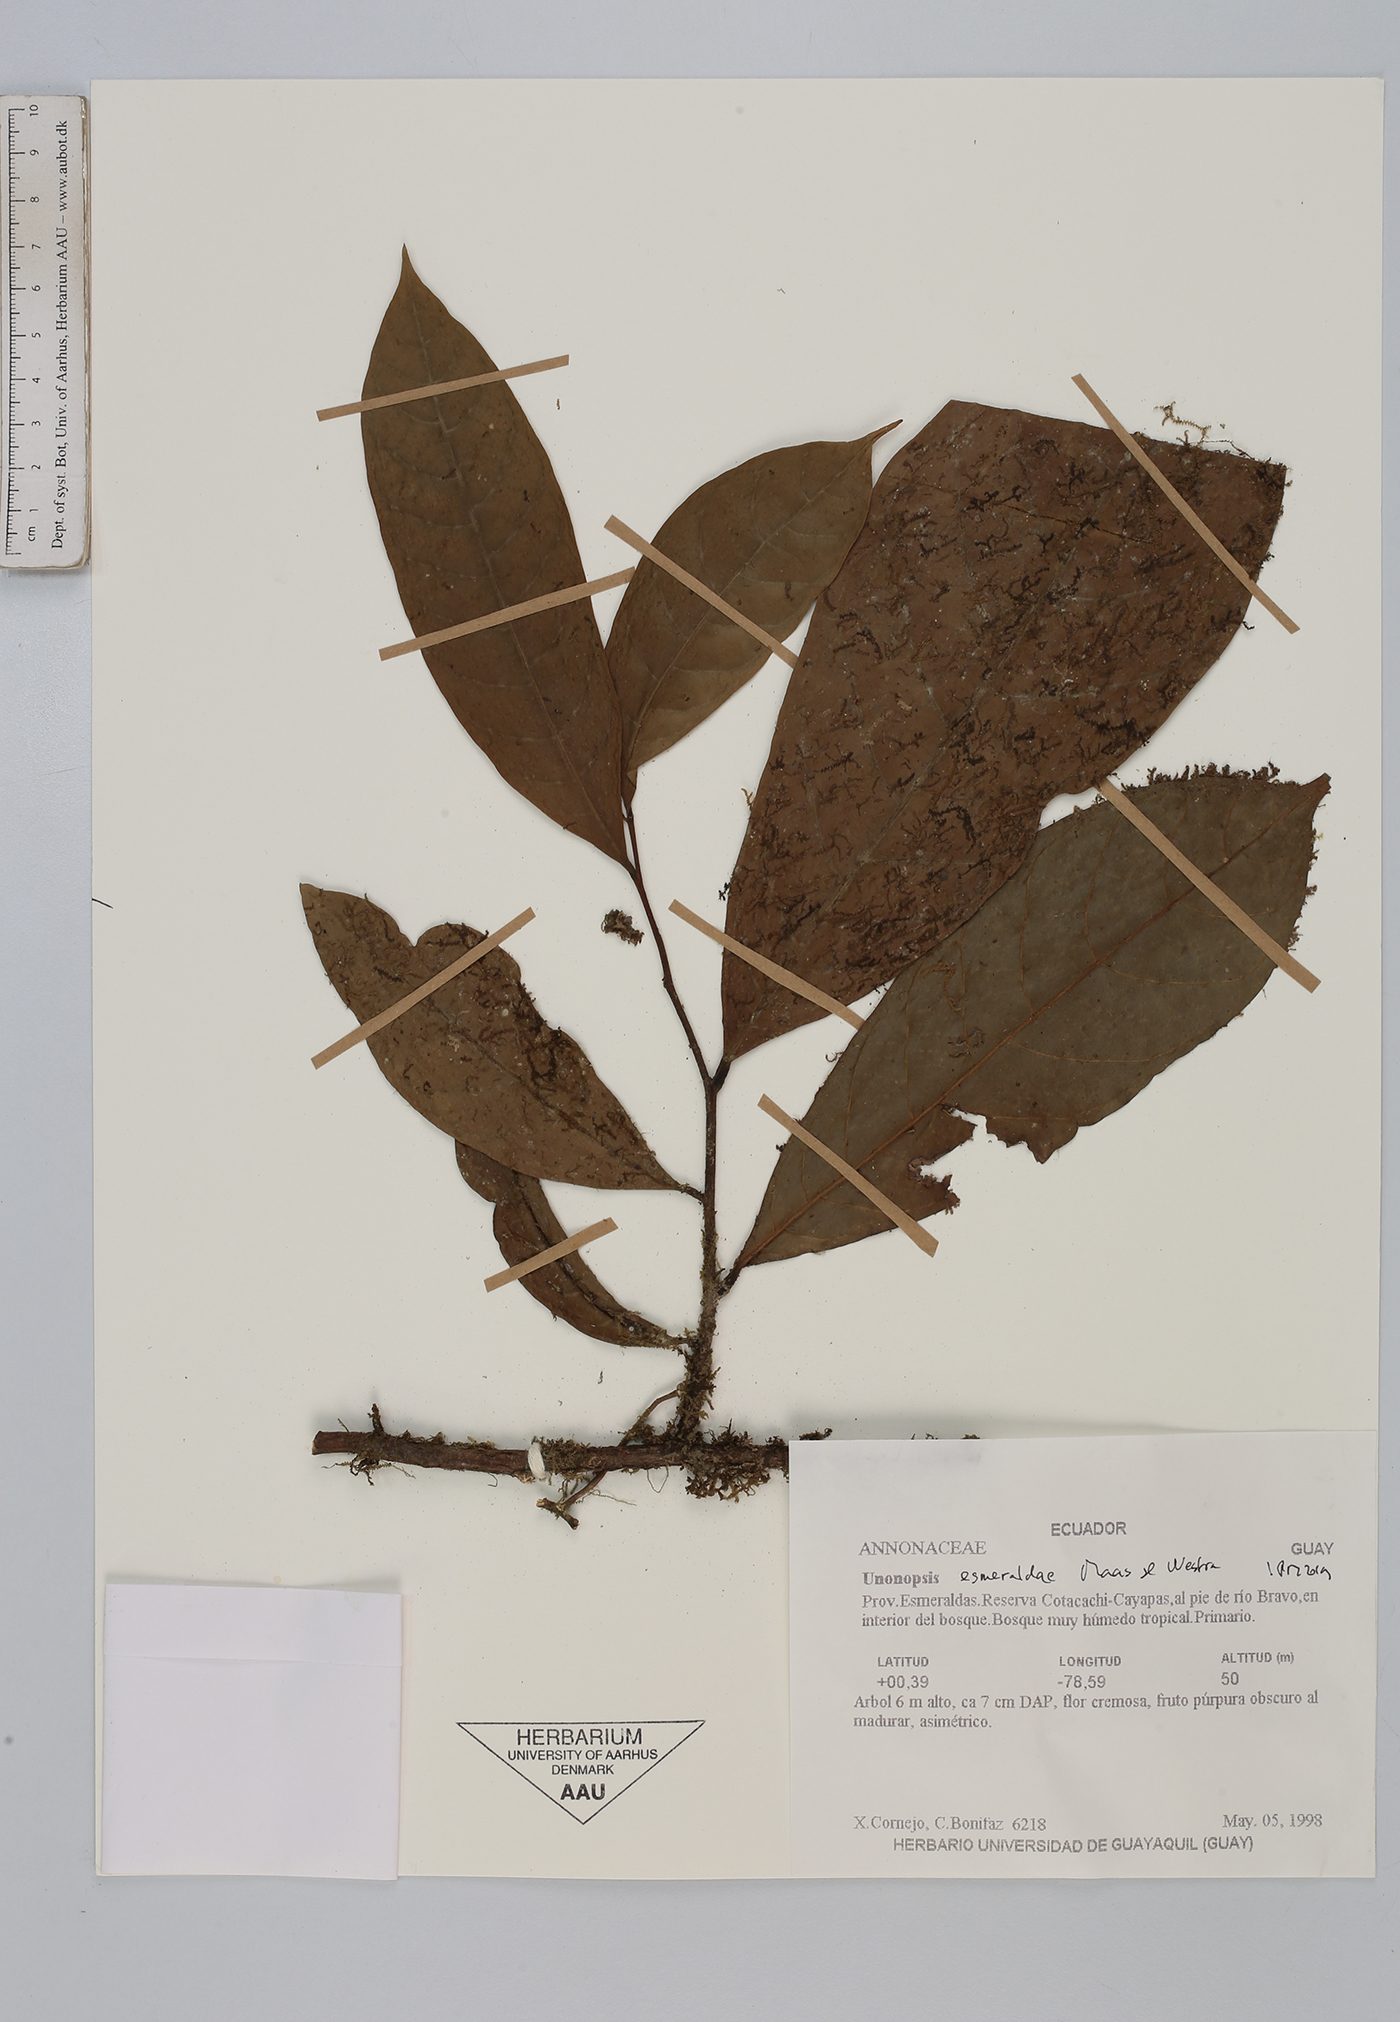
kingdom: Plantae
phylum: Tracheophyta
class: Magnoliopsida
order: Magnoliales
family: Annonaceae
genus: Unonopsis
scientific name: Unonopsis esmeraldae
